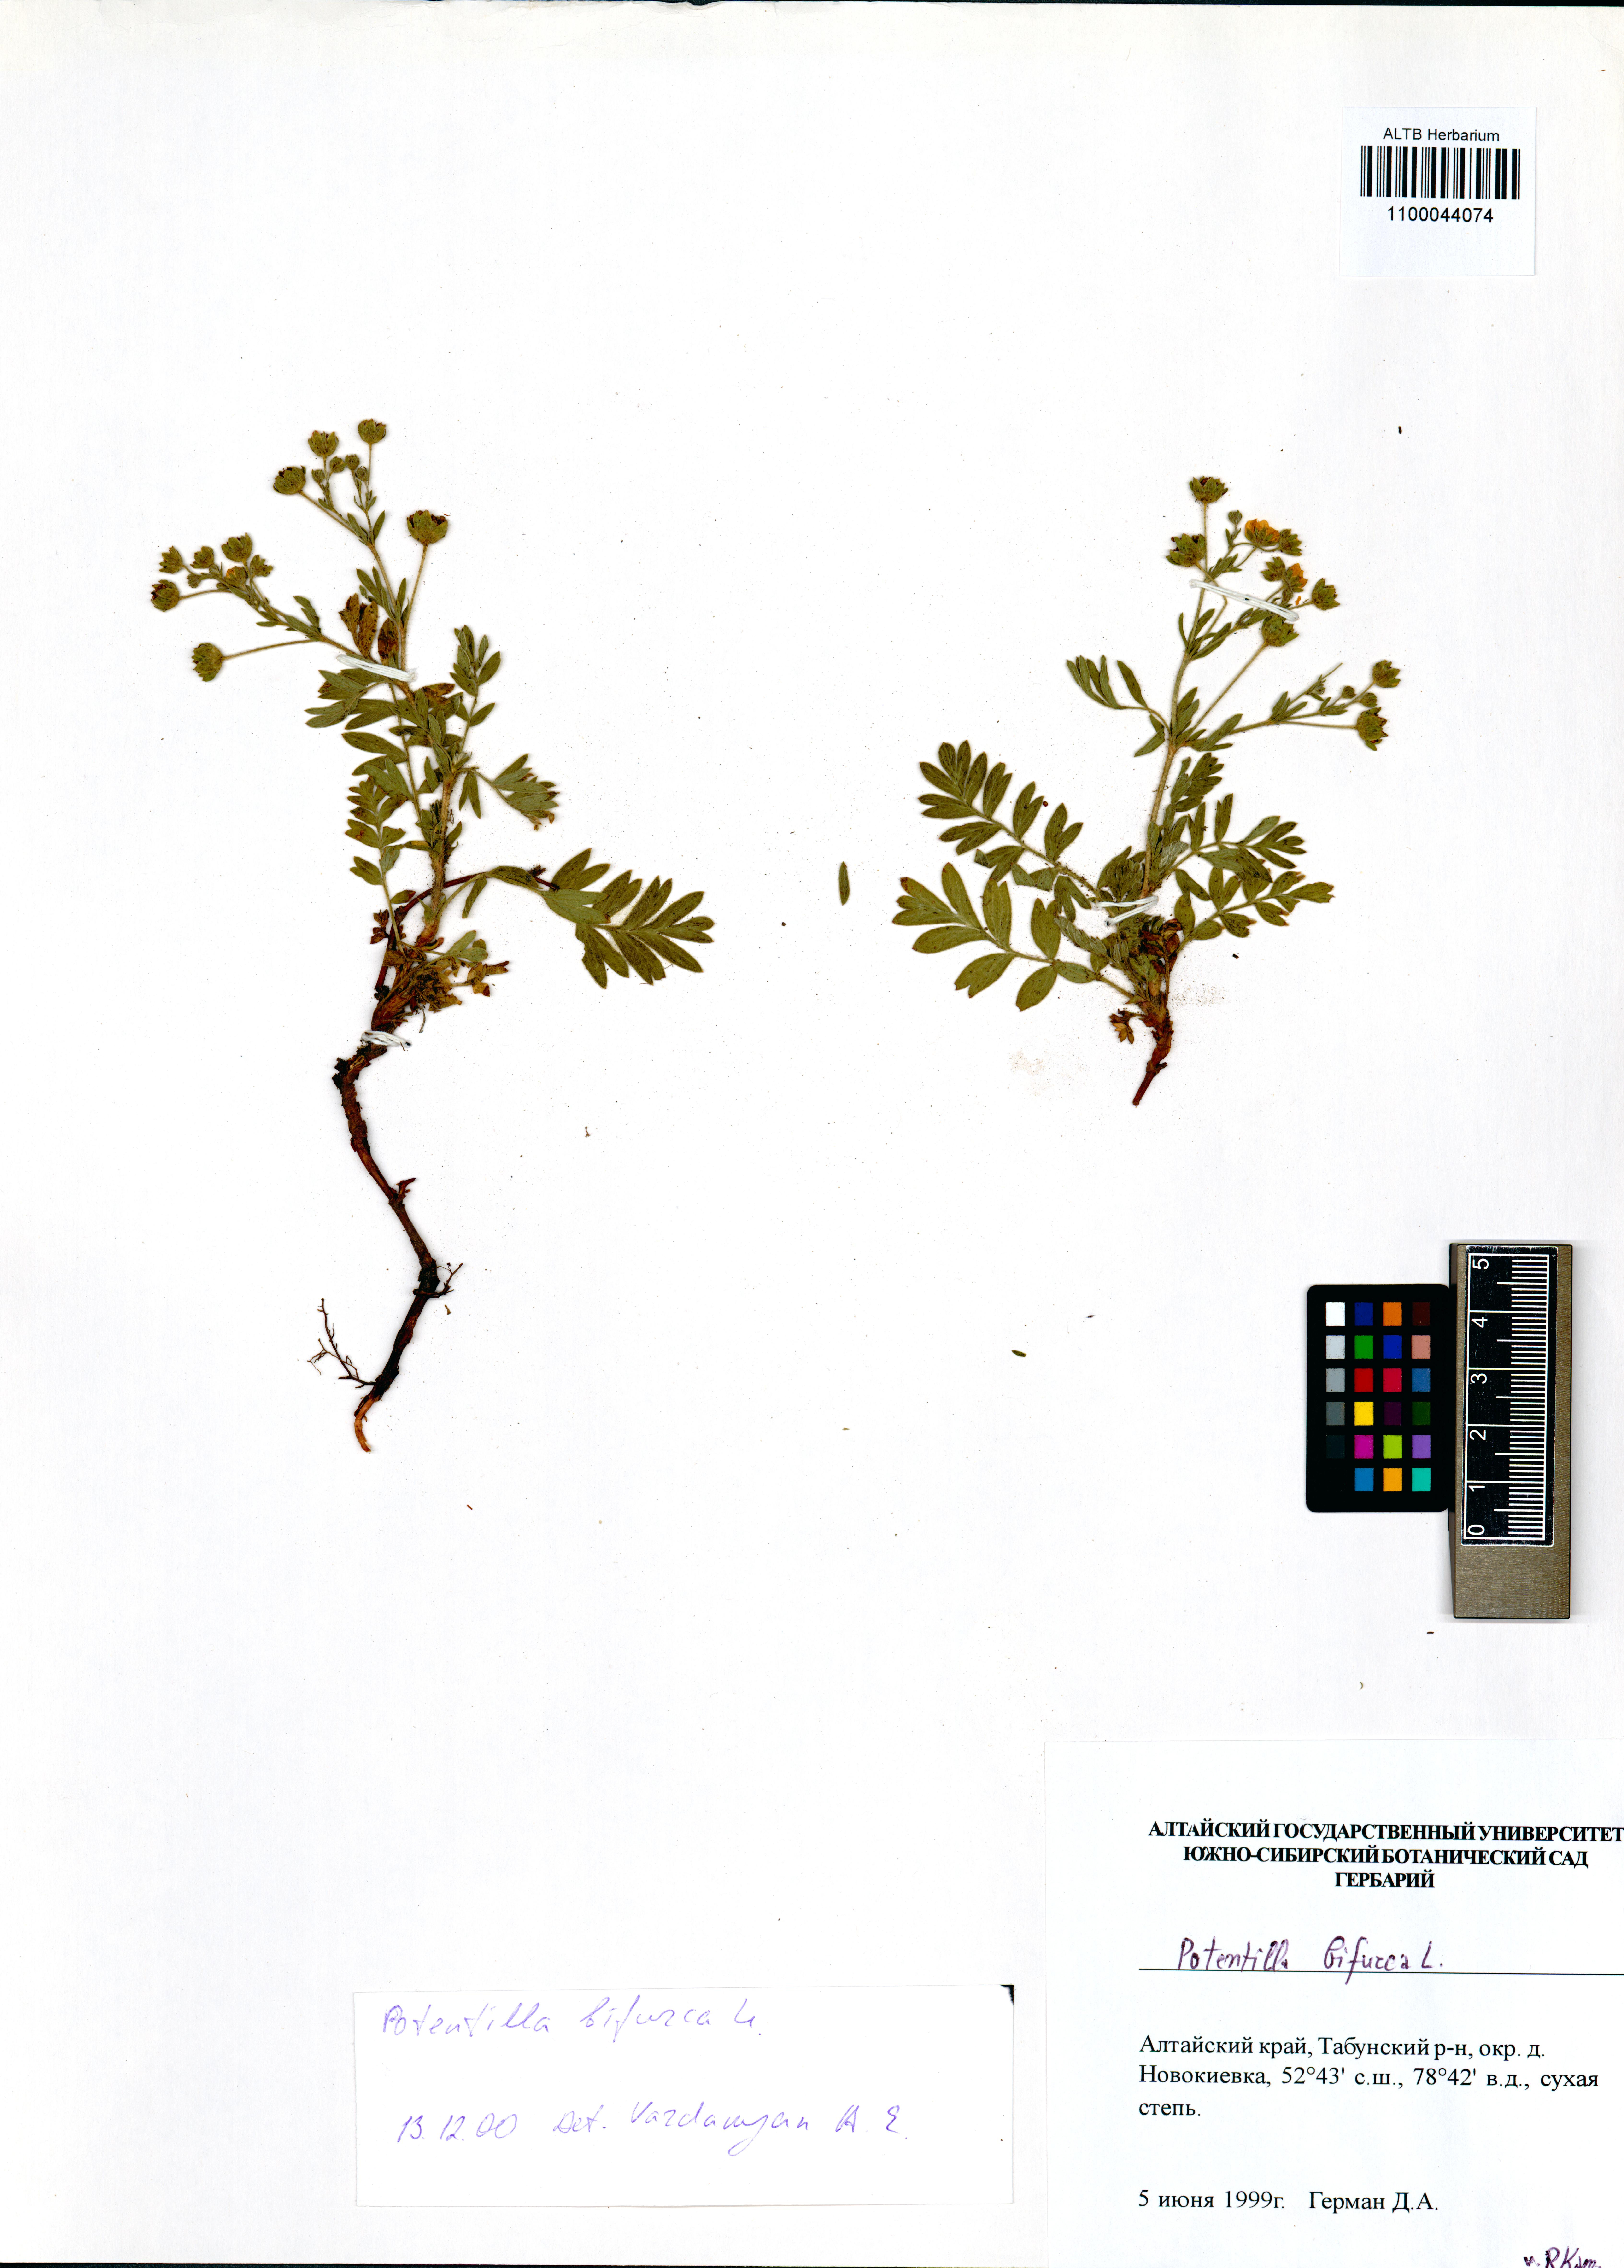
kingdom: Plantae
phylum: Tracheophyta
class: Magnoliopsida
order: Rosales
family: Rosaceae
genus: Sibbaldianthe
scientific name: Sibbaldianthe bifurca
